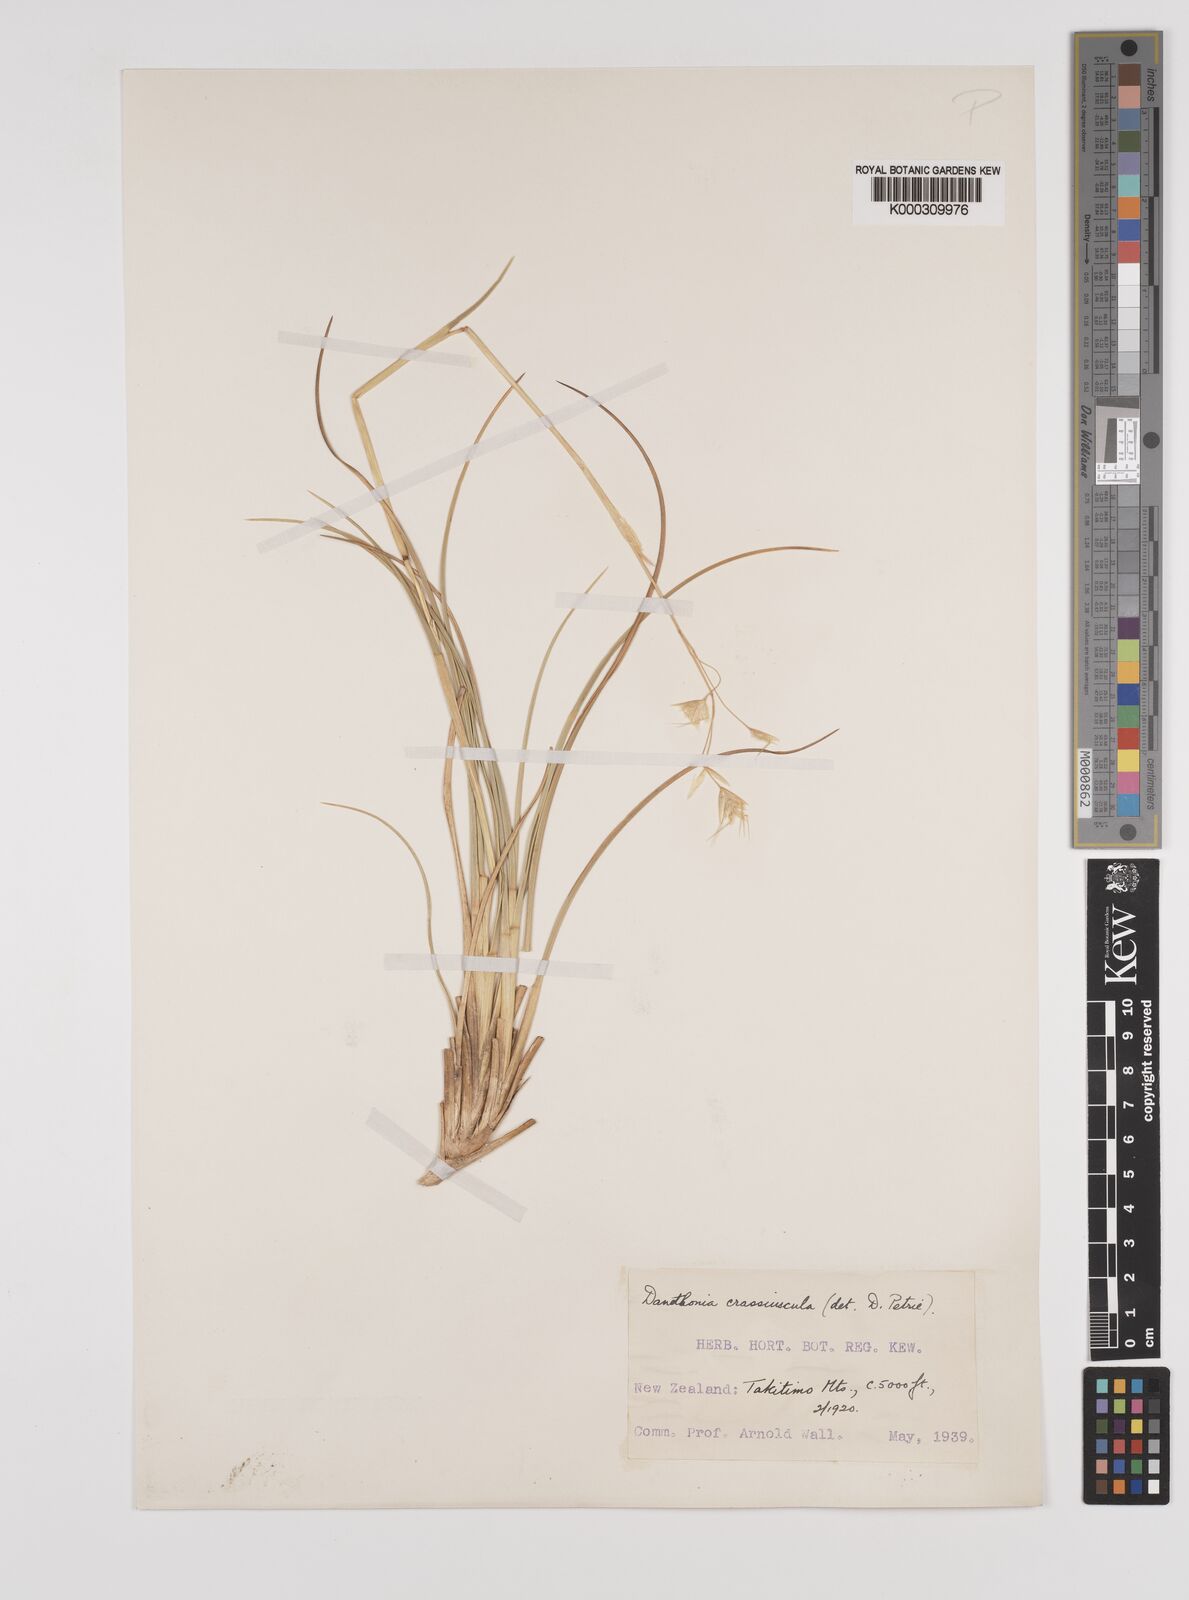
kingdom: Plantae
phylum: Tracheophyta
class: Liliopsida
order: Poales
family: Poaceae
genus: Chionochloa
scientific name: Chionochloa ovata
